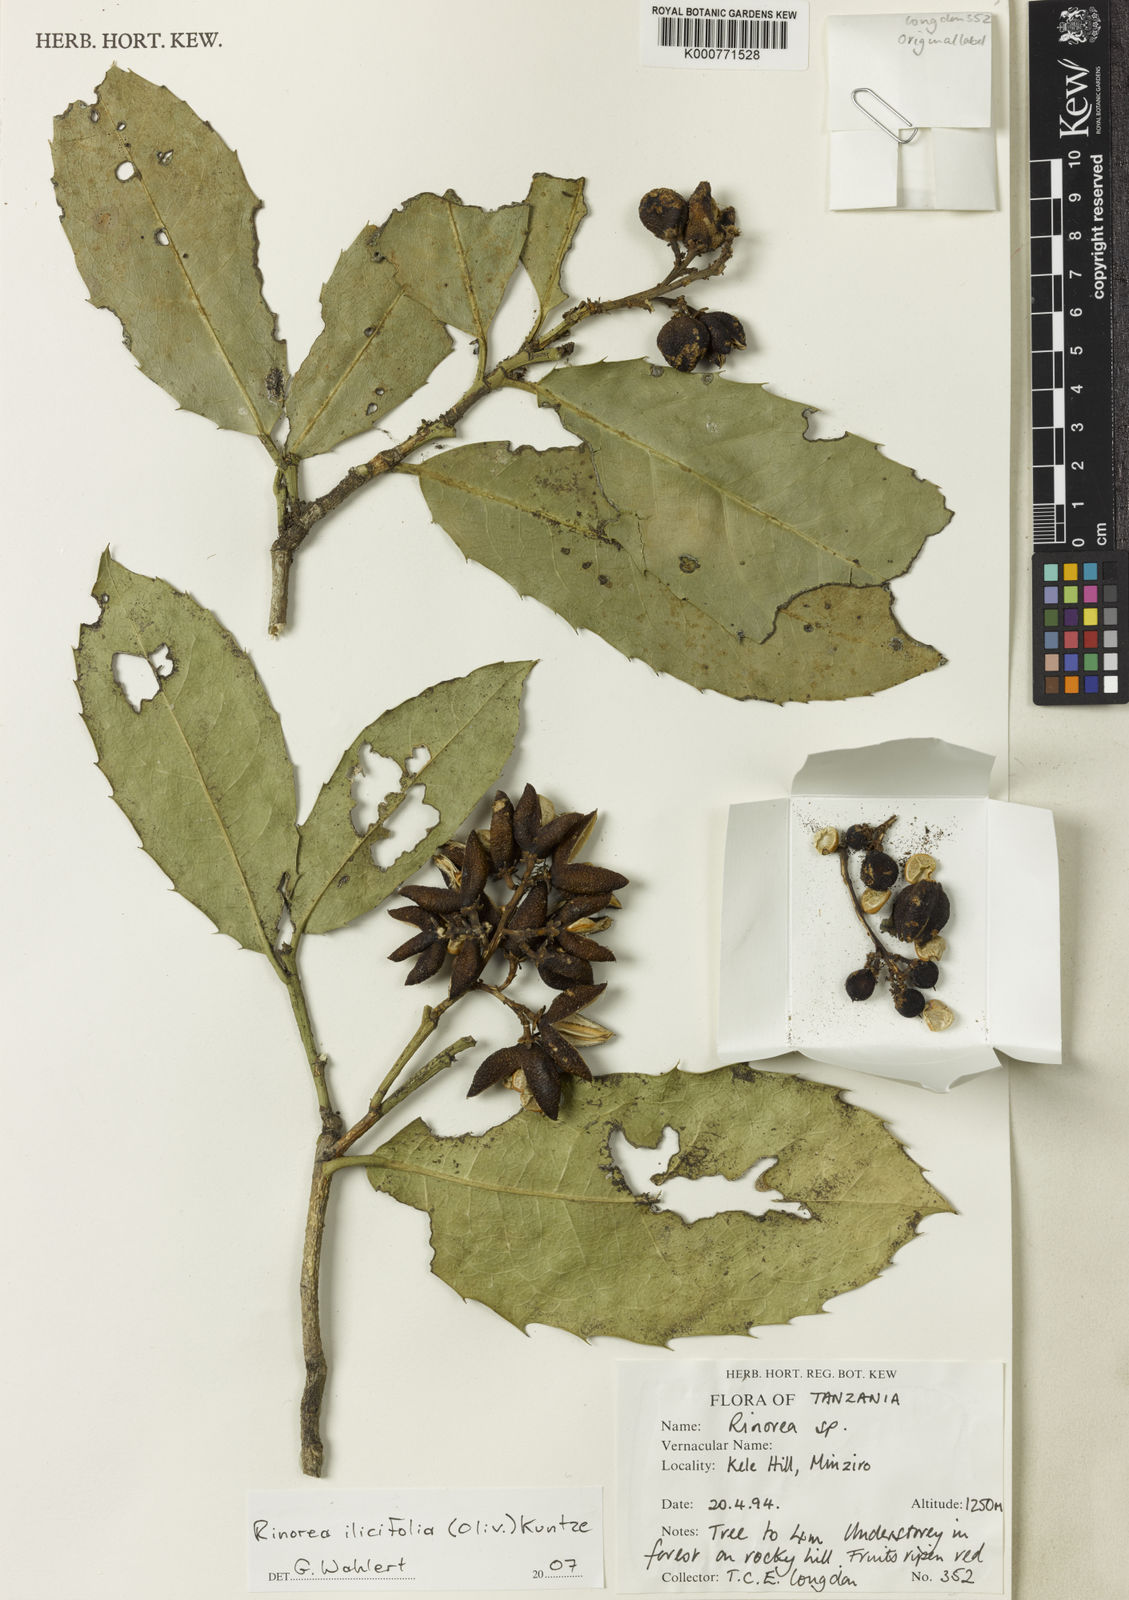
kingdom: Plantae
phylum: Tracheophyta
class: Magnoliopsida
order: Malpighiales
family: Violaceae
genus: Rinorea
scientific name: Rinorea ilicifolia
